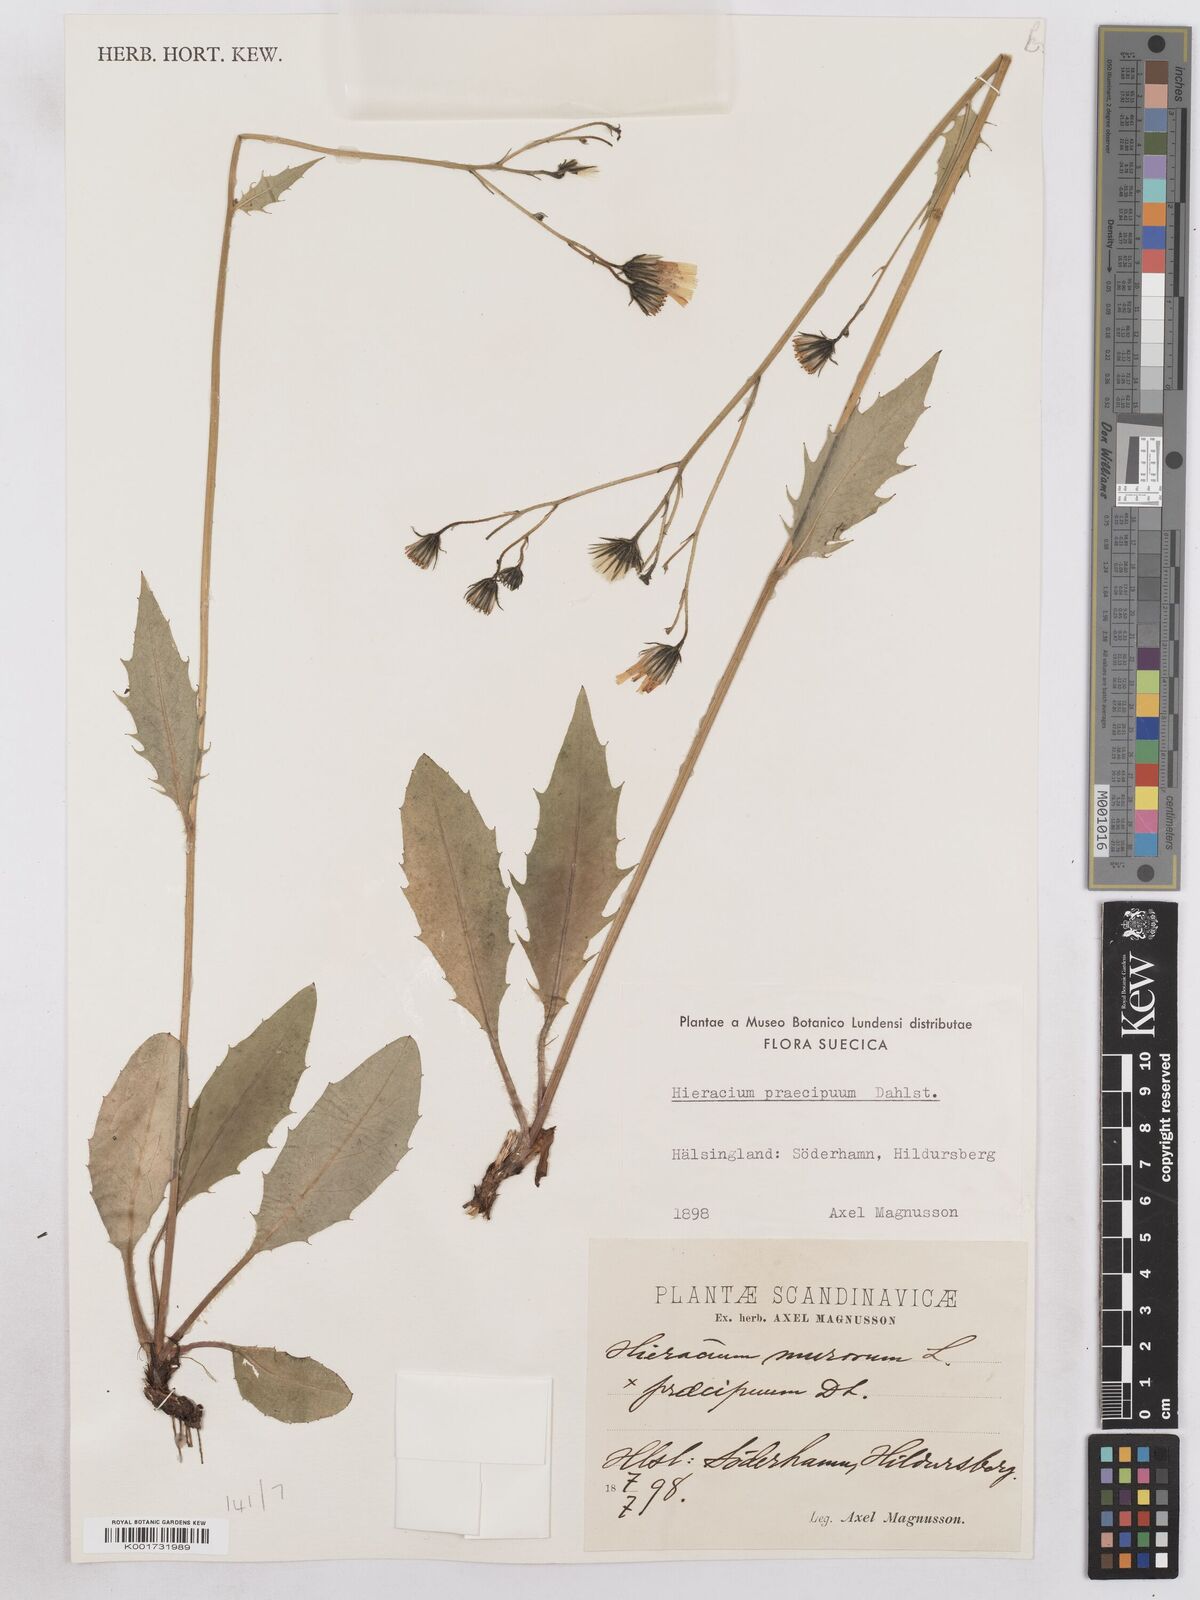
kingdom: Plantae
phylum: Tracheophyta
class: Magnoliopsida
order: Asterales
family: Asteraceae
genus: Hieracium
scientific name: Hieracium diaphanoides
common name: Fine-bracted hawkweed
